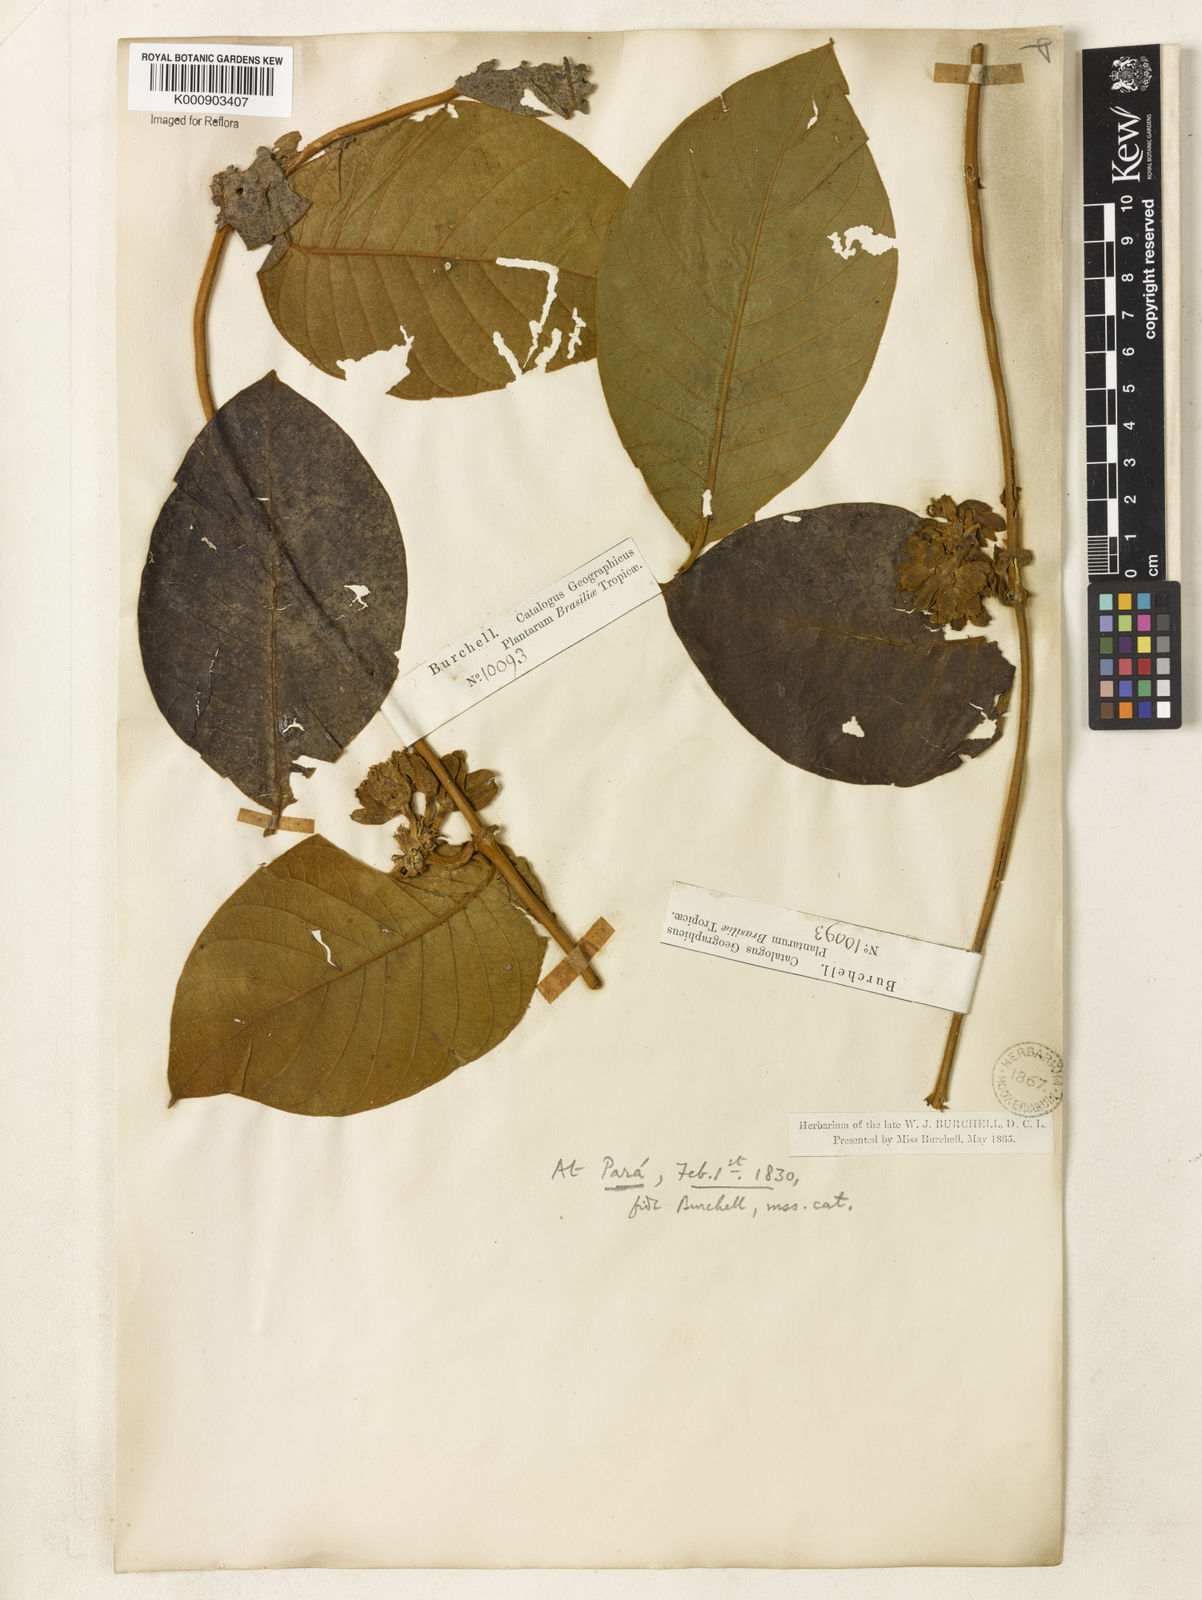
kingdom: Plantae
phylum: Tracheophyta
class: Magnoliopsida
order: Gentianales
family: Apocynaceae
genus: Prestonia
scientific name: Prestonia
